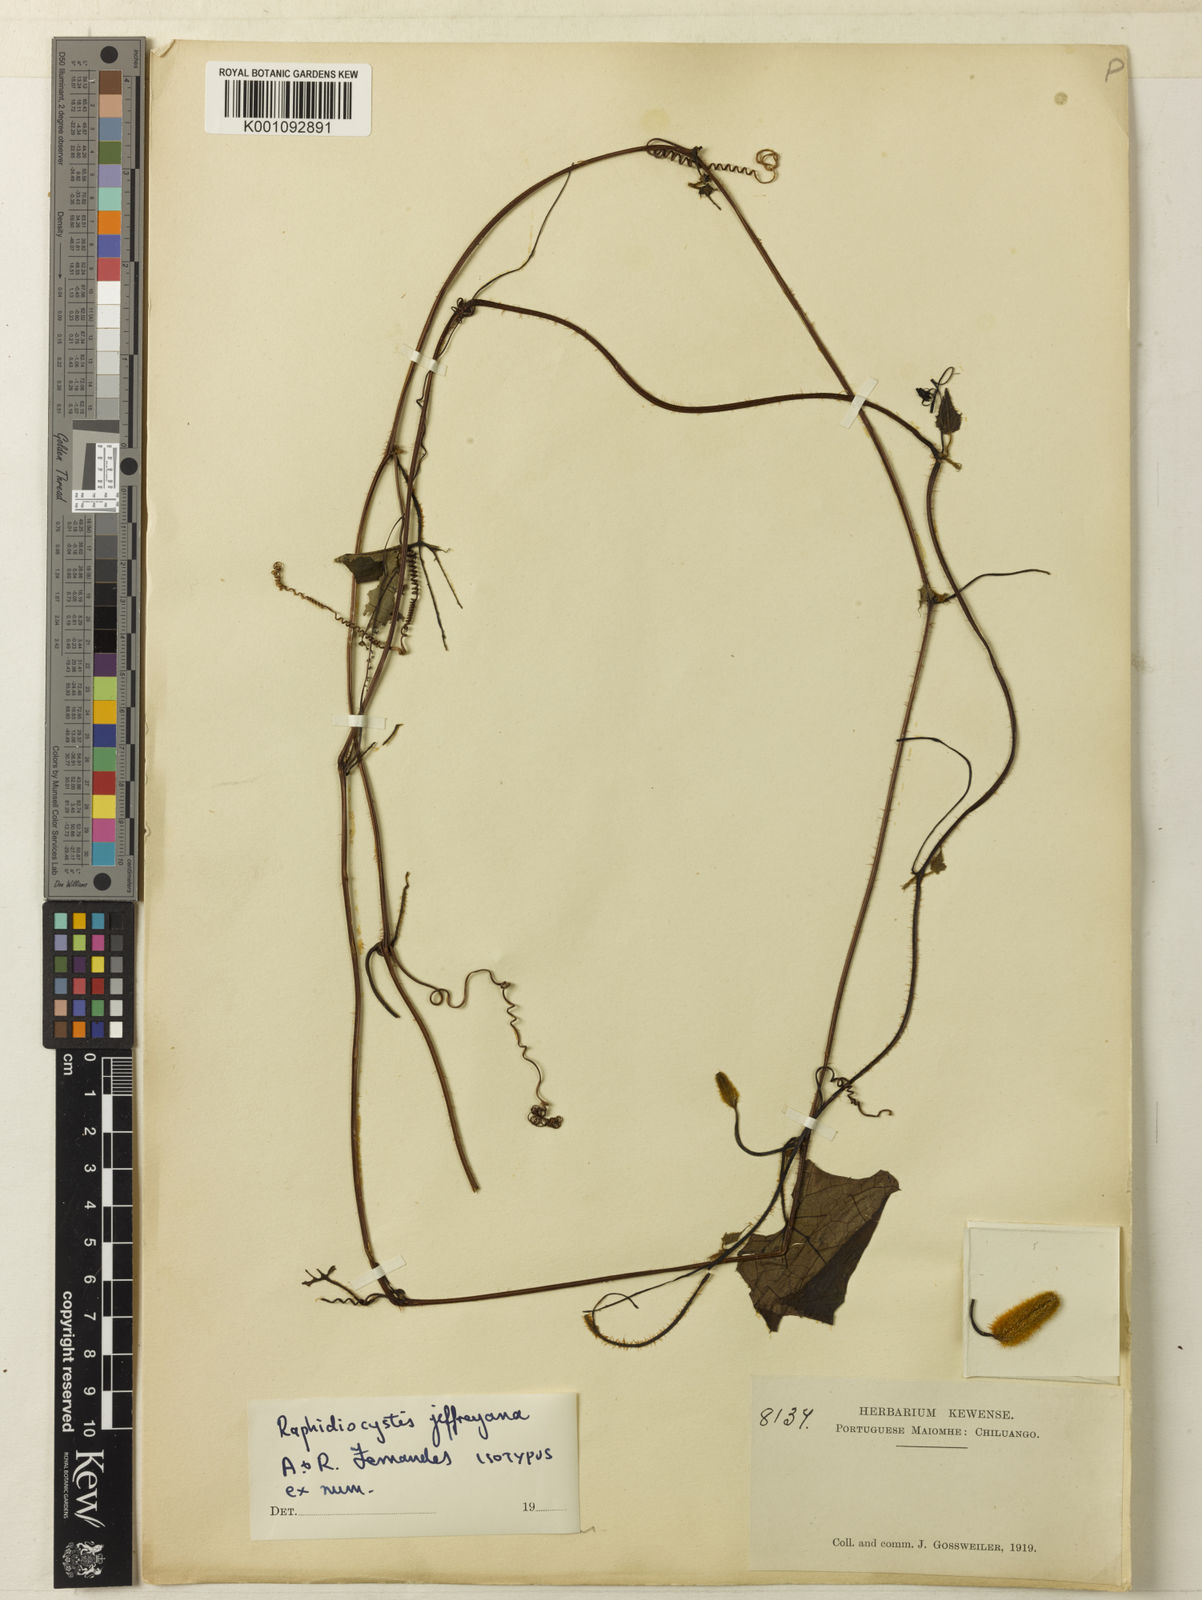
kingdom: Plantae
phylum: Tracheophyta
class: Magnoliopsida
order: Cucurbitales
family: Cucurbitaceae
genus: Raphidiocystis
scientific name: Raphidiocystis jeffreyana
